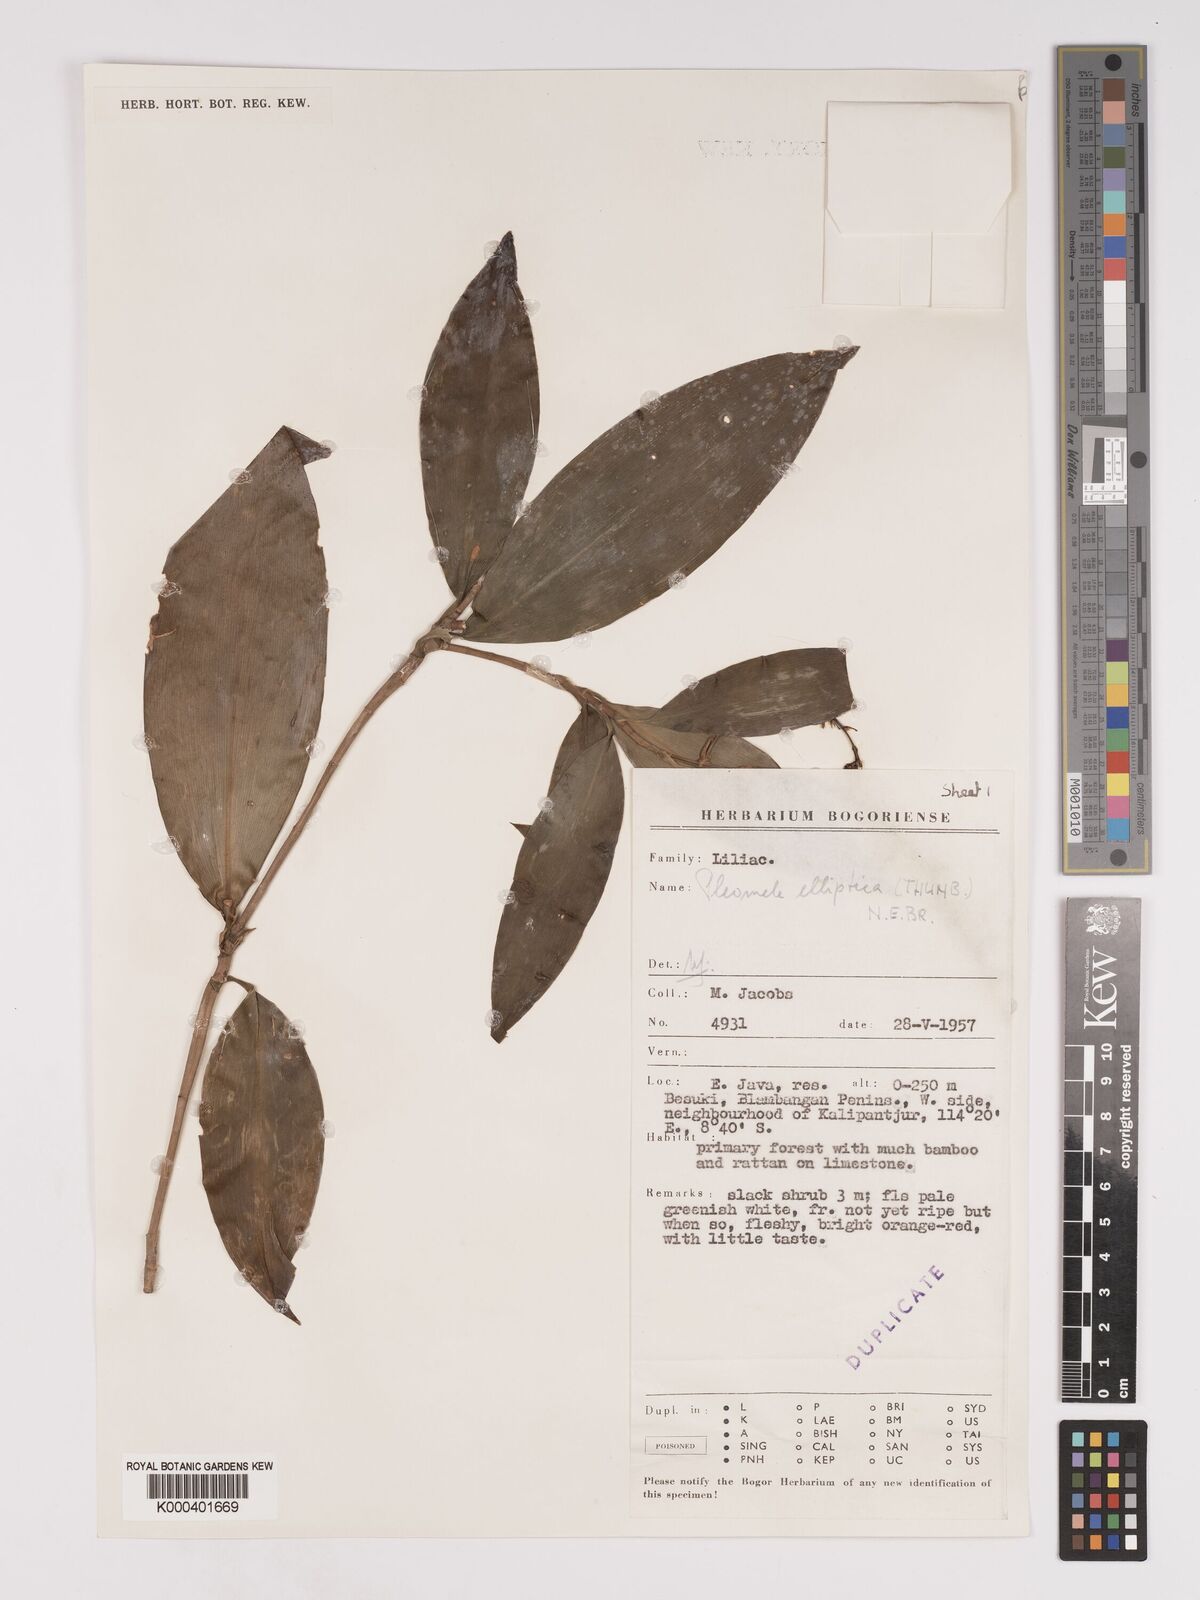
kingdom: Plantae
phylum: Tracheophyta
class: Liliopsida
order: Asparagales
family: Asparagaceae
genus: Dracaena
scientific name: Dracaena elliptica
